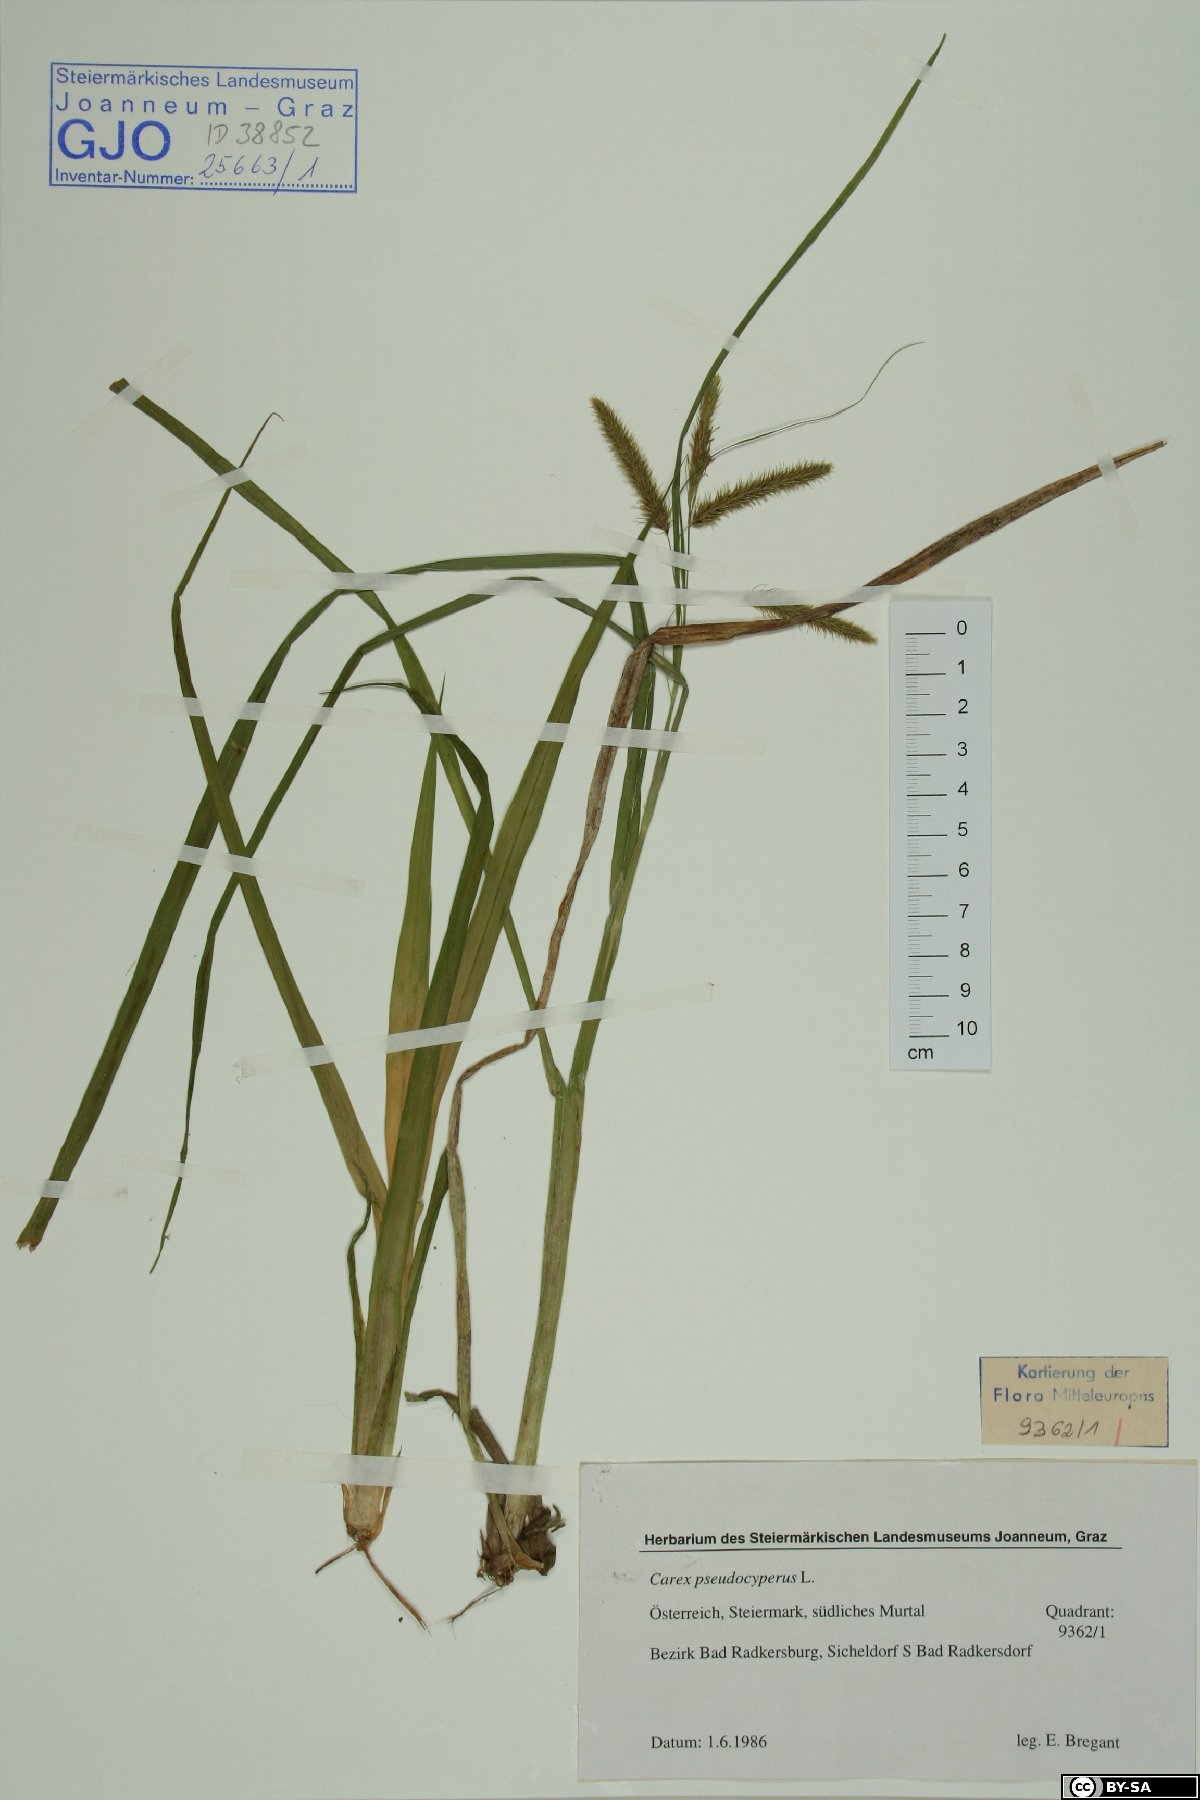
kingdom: Plantae
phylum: Tracheophyta
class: Liliopsida
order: Poales
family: Cyperaceae
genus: Carex
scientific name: Carex pseudocyperus
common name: Cyperus sedge
